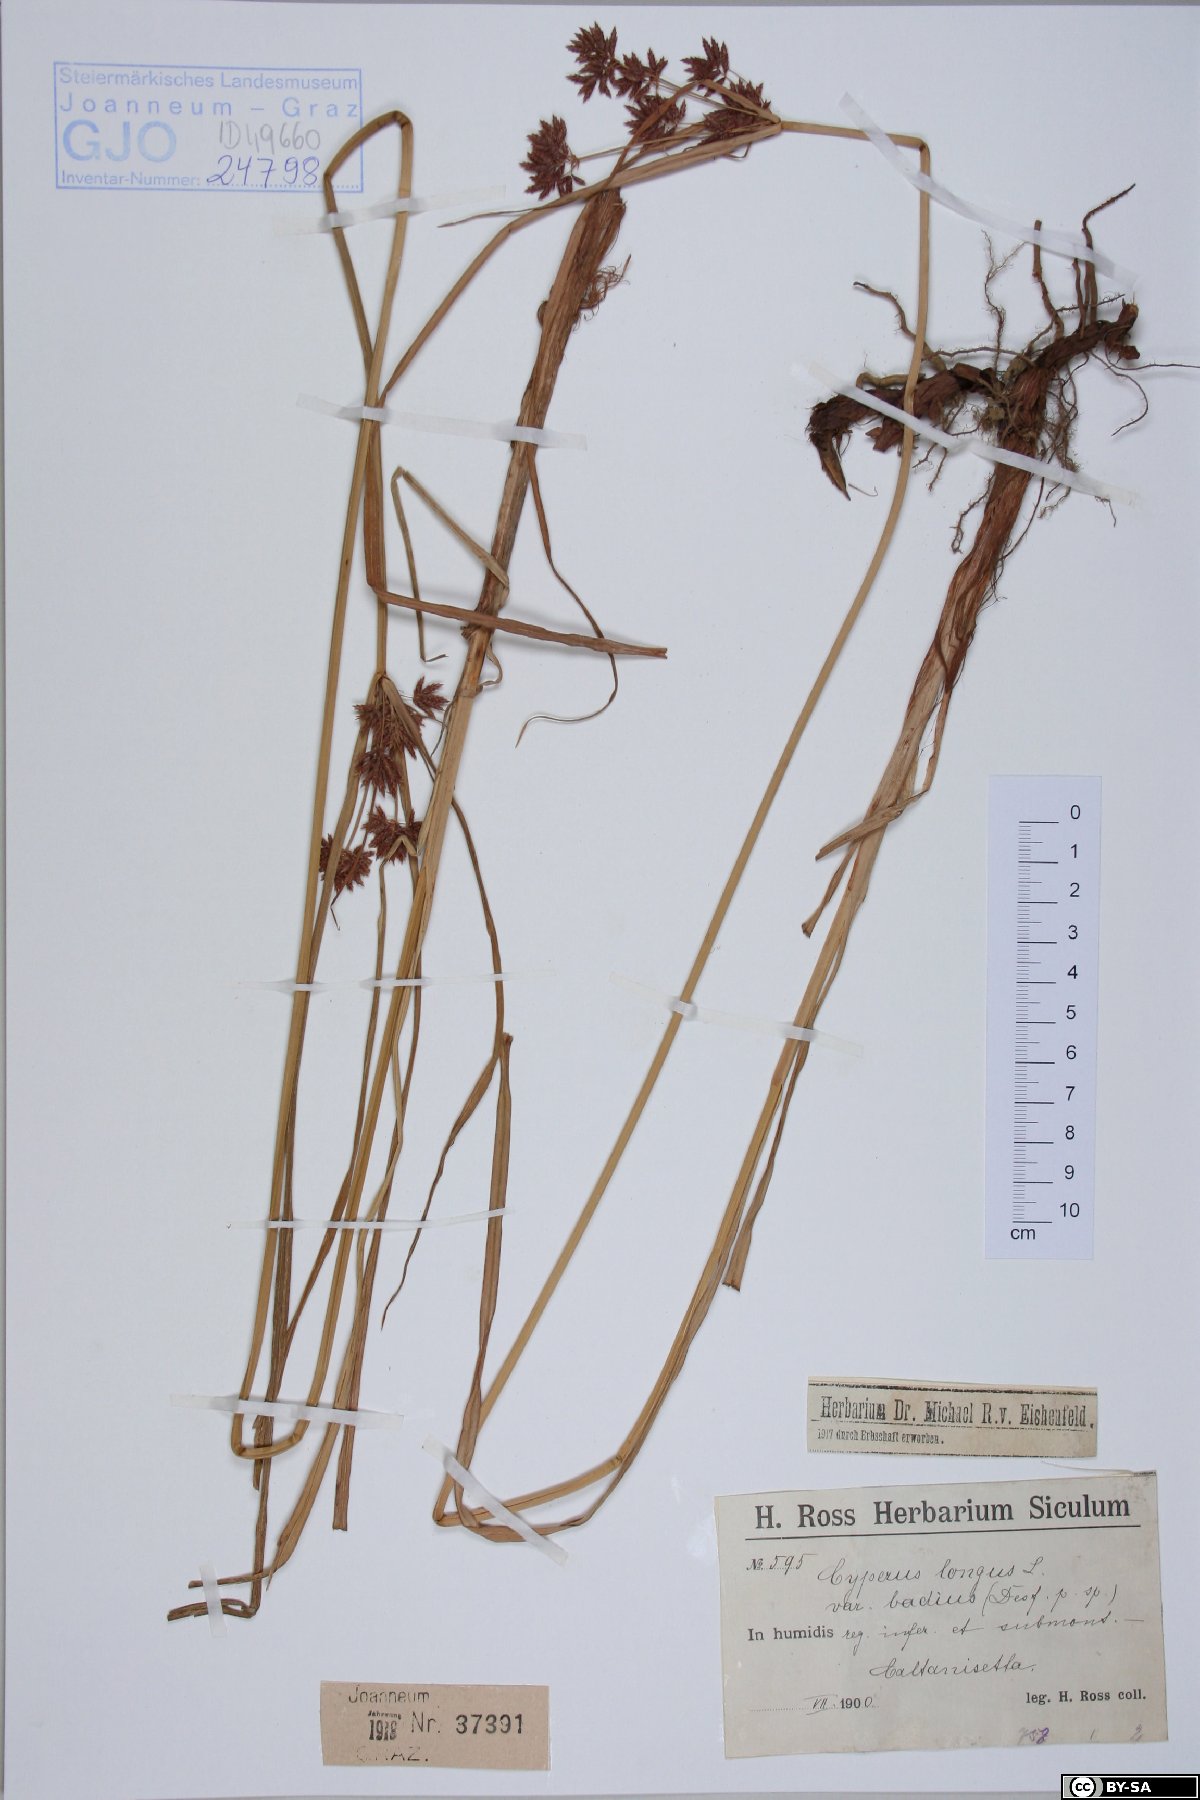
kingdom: Plantae
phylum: Tracheophyta
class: Liliopsida
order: Poales
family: Cyperaceae
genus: Cyperus
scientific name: Cyperus longus
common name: Galingale
